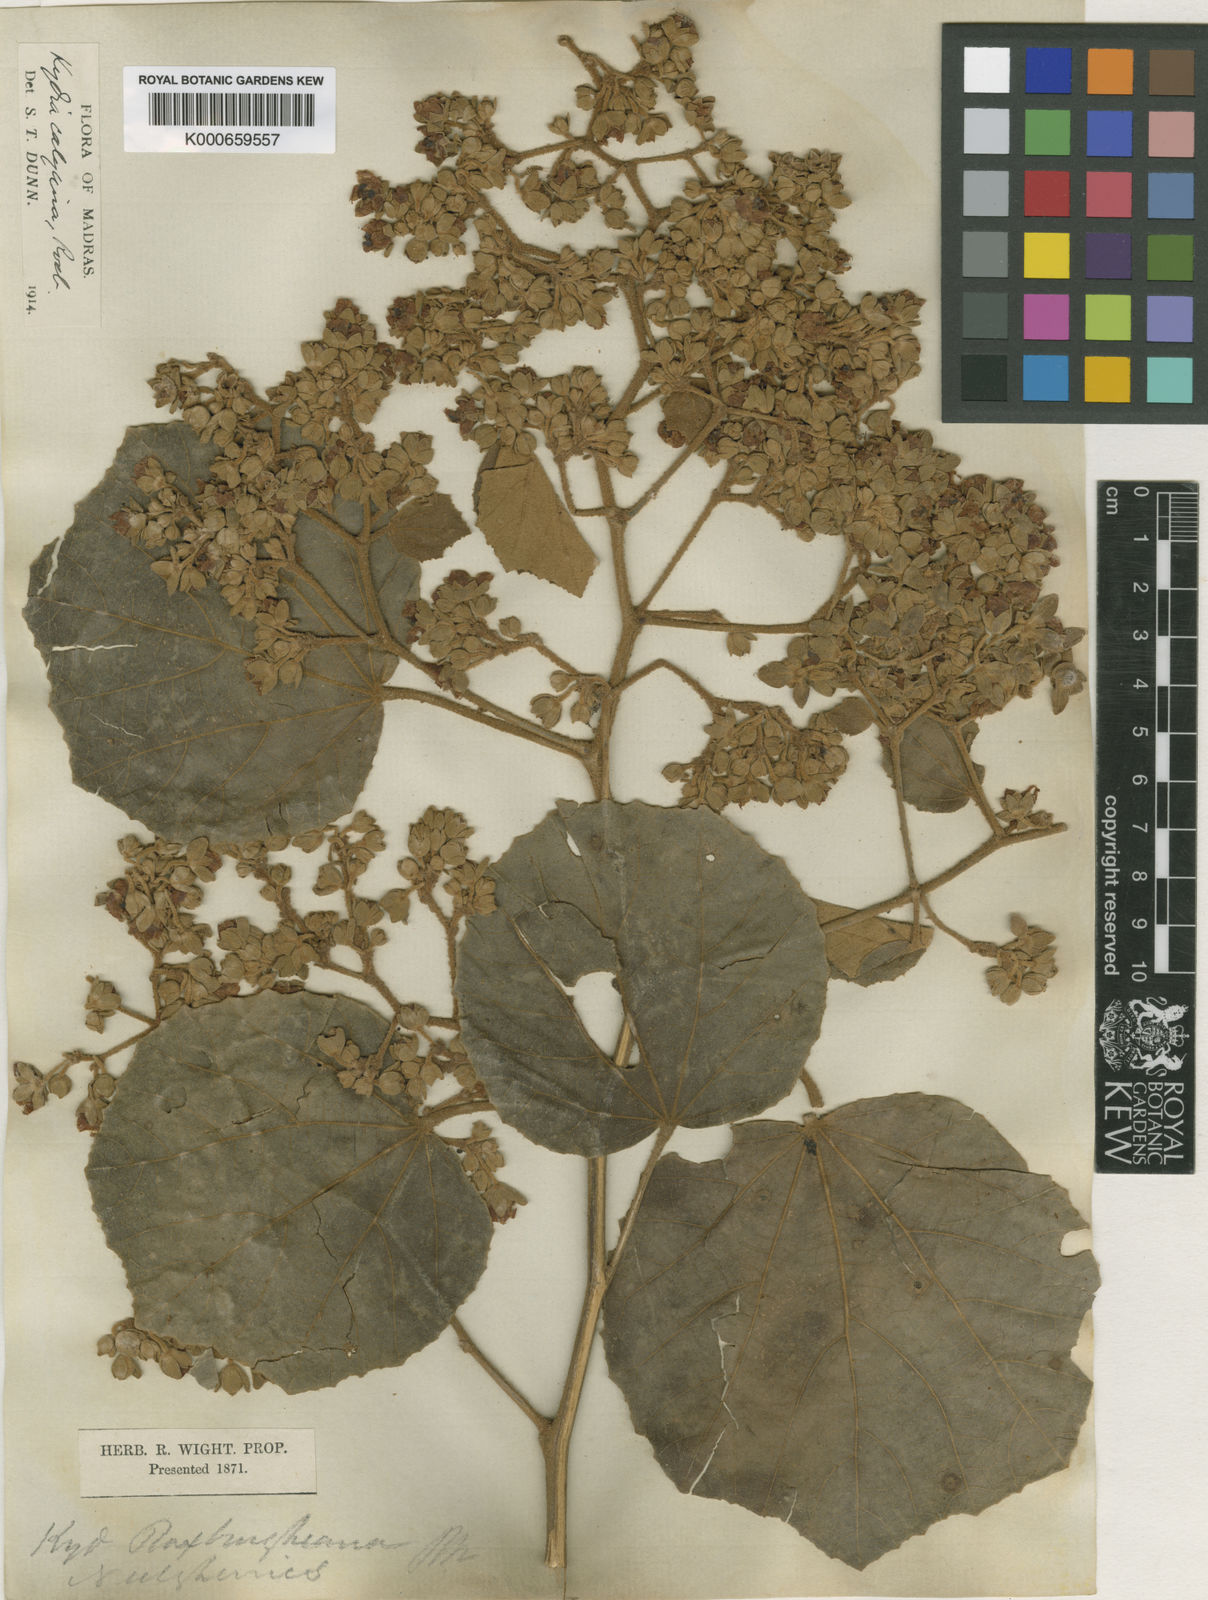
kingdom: Plantae
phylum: Tracheophyta
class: Magnoliopsida
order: Malvales
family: Malvaceae
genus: Kydia
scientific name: Kydia calycina
